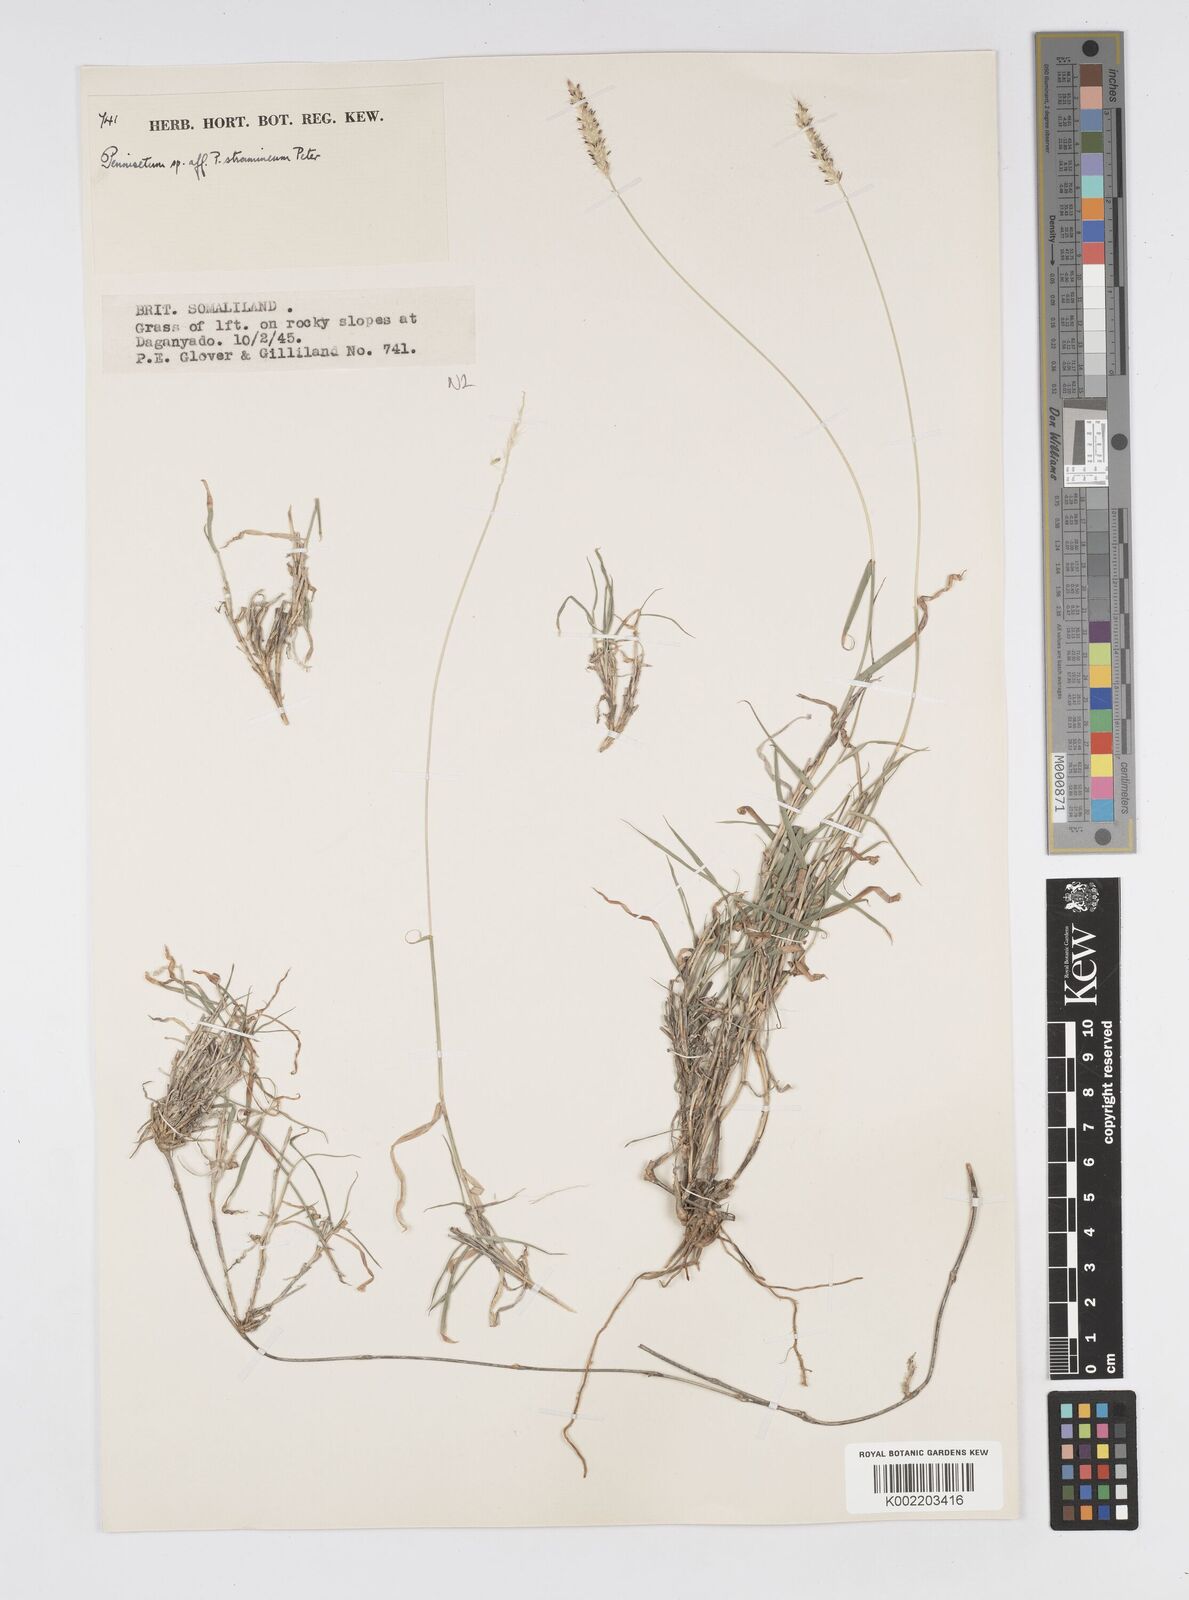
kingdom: Plantae
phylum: Tracheophyta
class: Liliopsida
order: Poales
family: Poaceae
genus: Cenchrus
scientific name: Cenchrus stramineus
